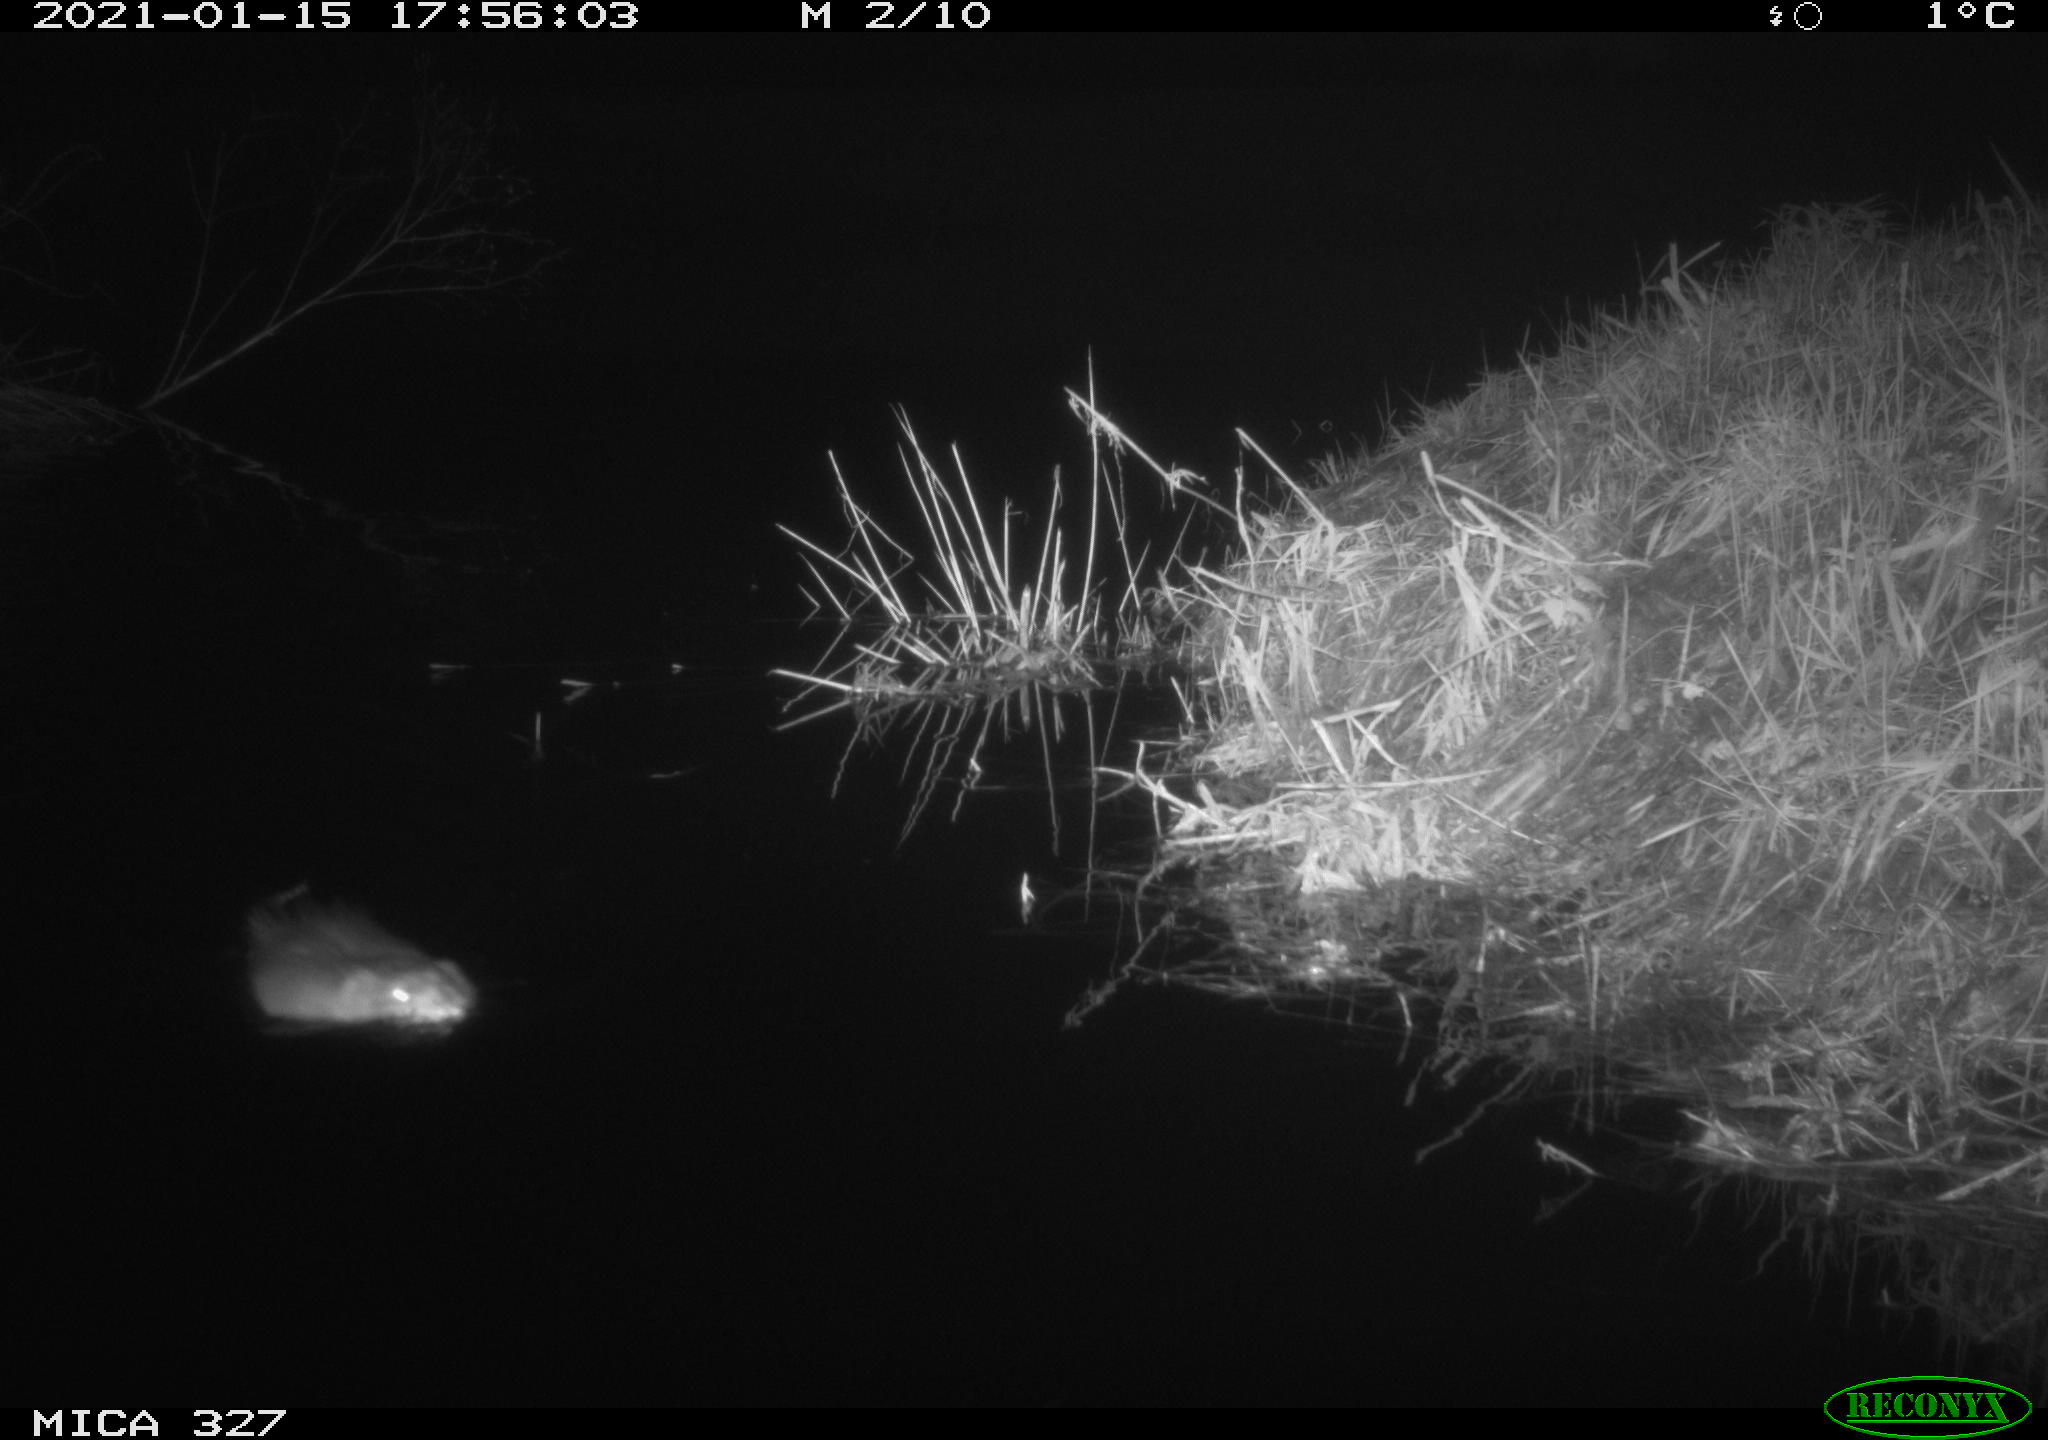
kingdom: Animalia
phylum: Chordata
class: Mammalia
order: Rodentia
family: Cricetidae
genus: Ondatra
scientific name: Ondatra zibethicus
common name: Muskrat
